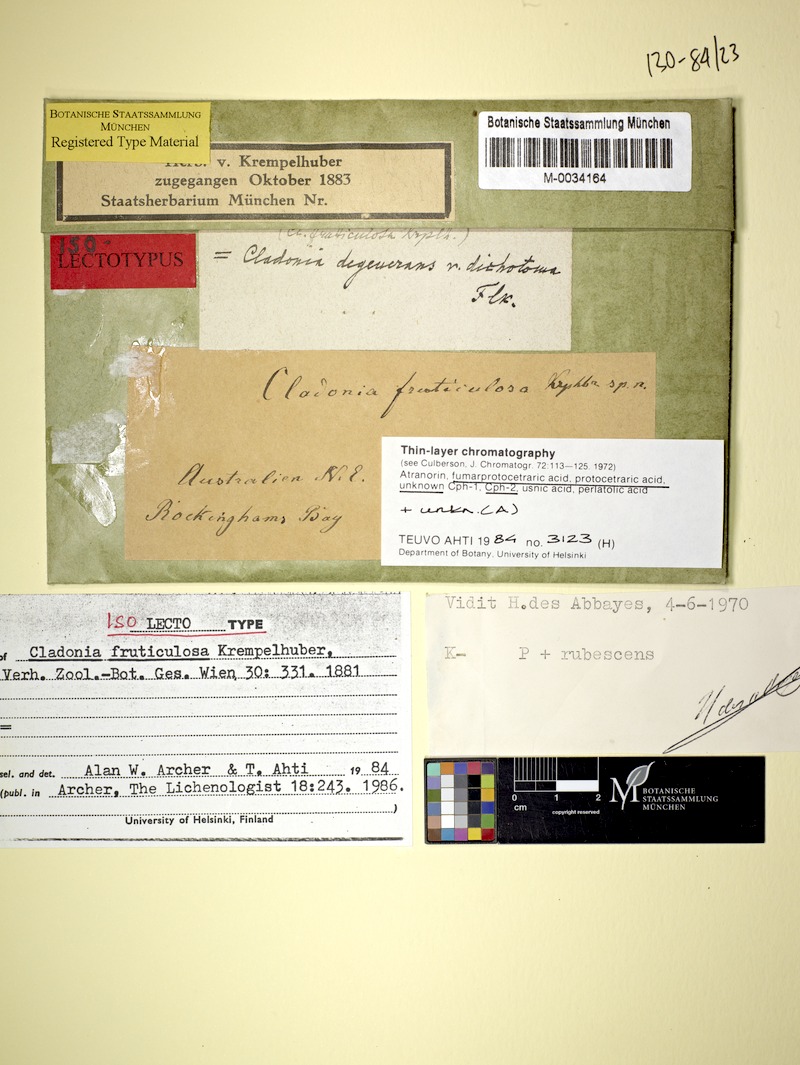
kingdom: Fungi
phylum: Ascomycota
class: Lecanoromycetes
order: Lecanorales
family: Cladoniaceae
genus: Cladonia
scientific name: Cladonia fruticulosa
